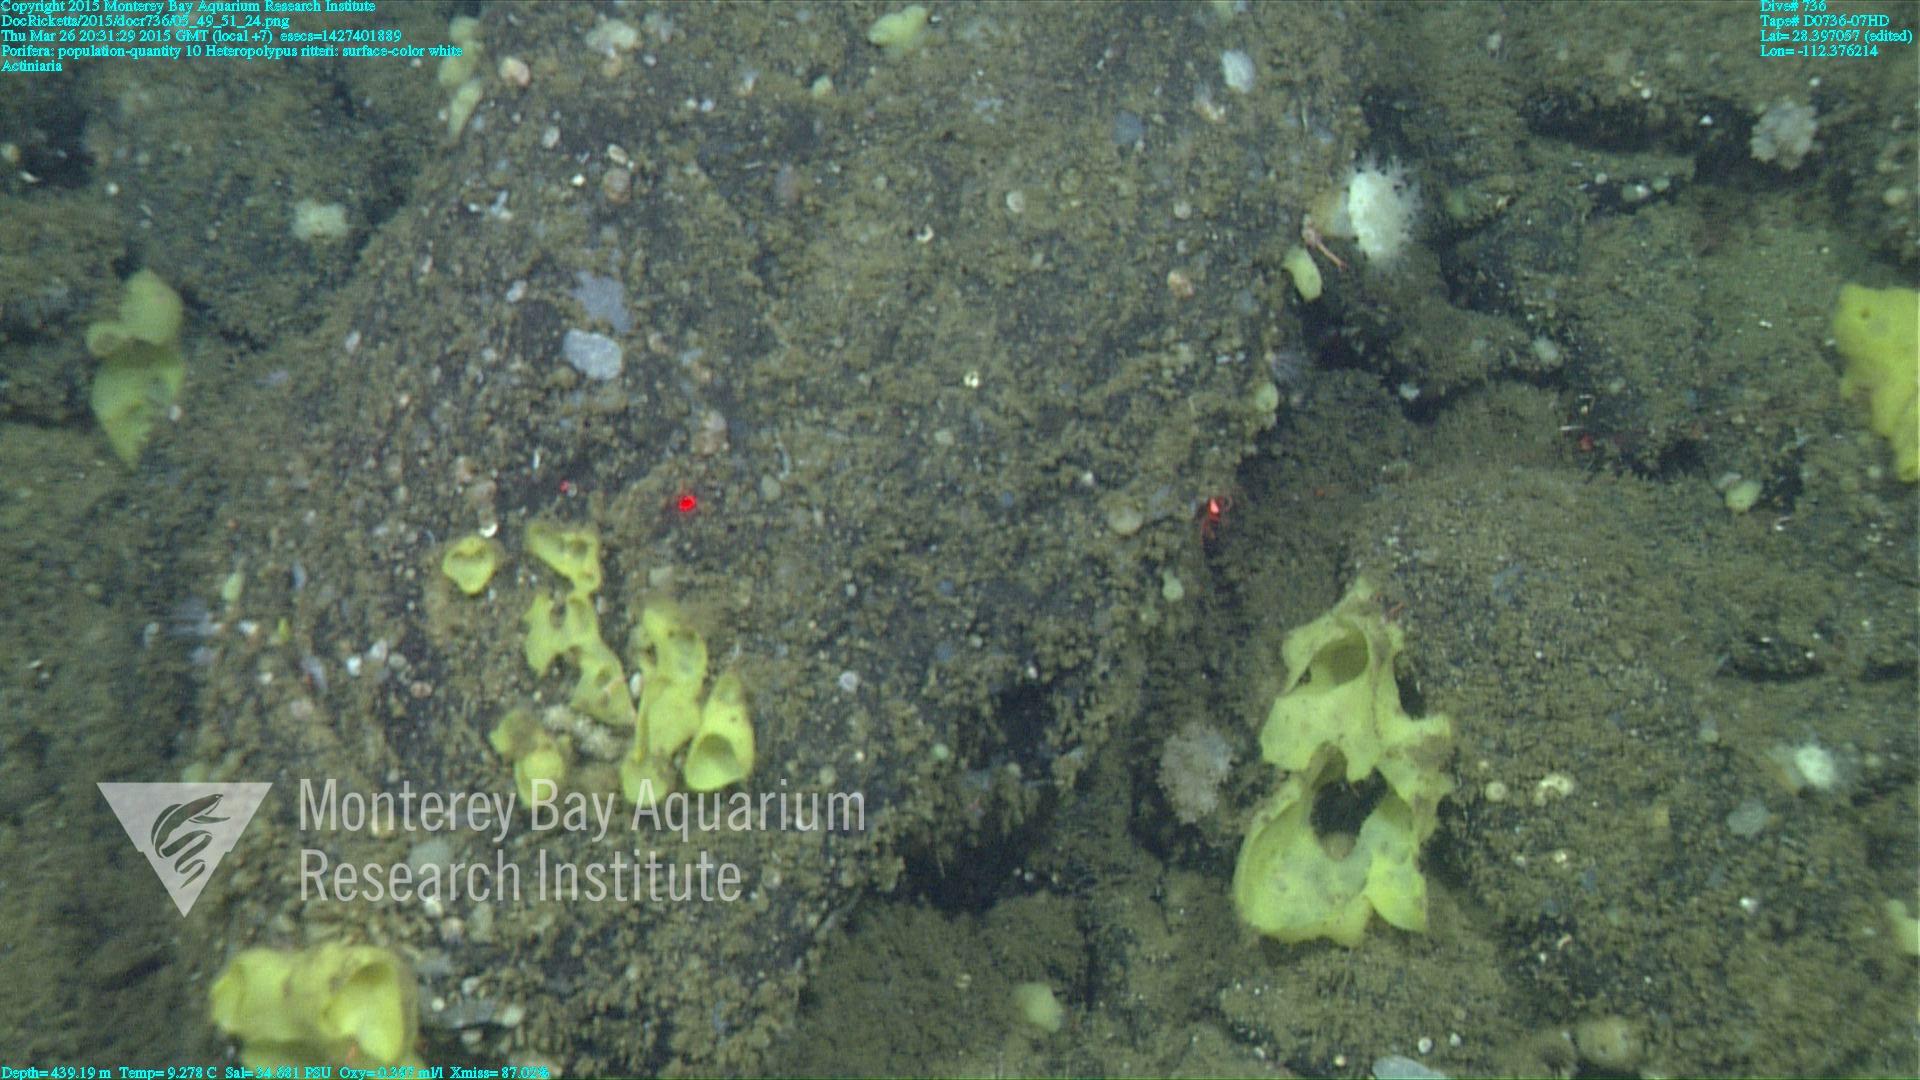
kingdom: Animalia
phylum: Cnidaria
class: Anthozoa
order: Scleralcyonacea
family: Coralliidae
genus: Heteropolypus
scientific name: Heteropolypus ritteri
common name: Ritter's soft coral
